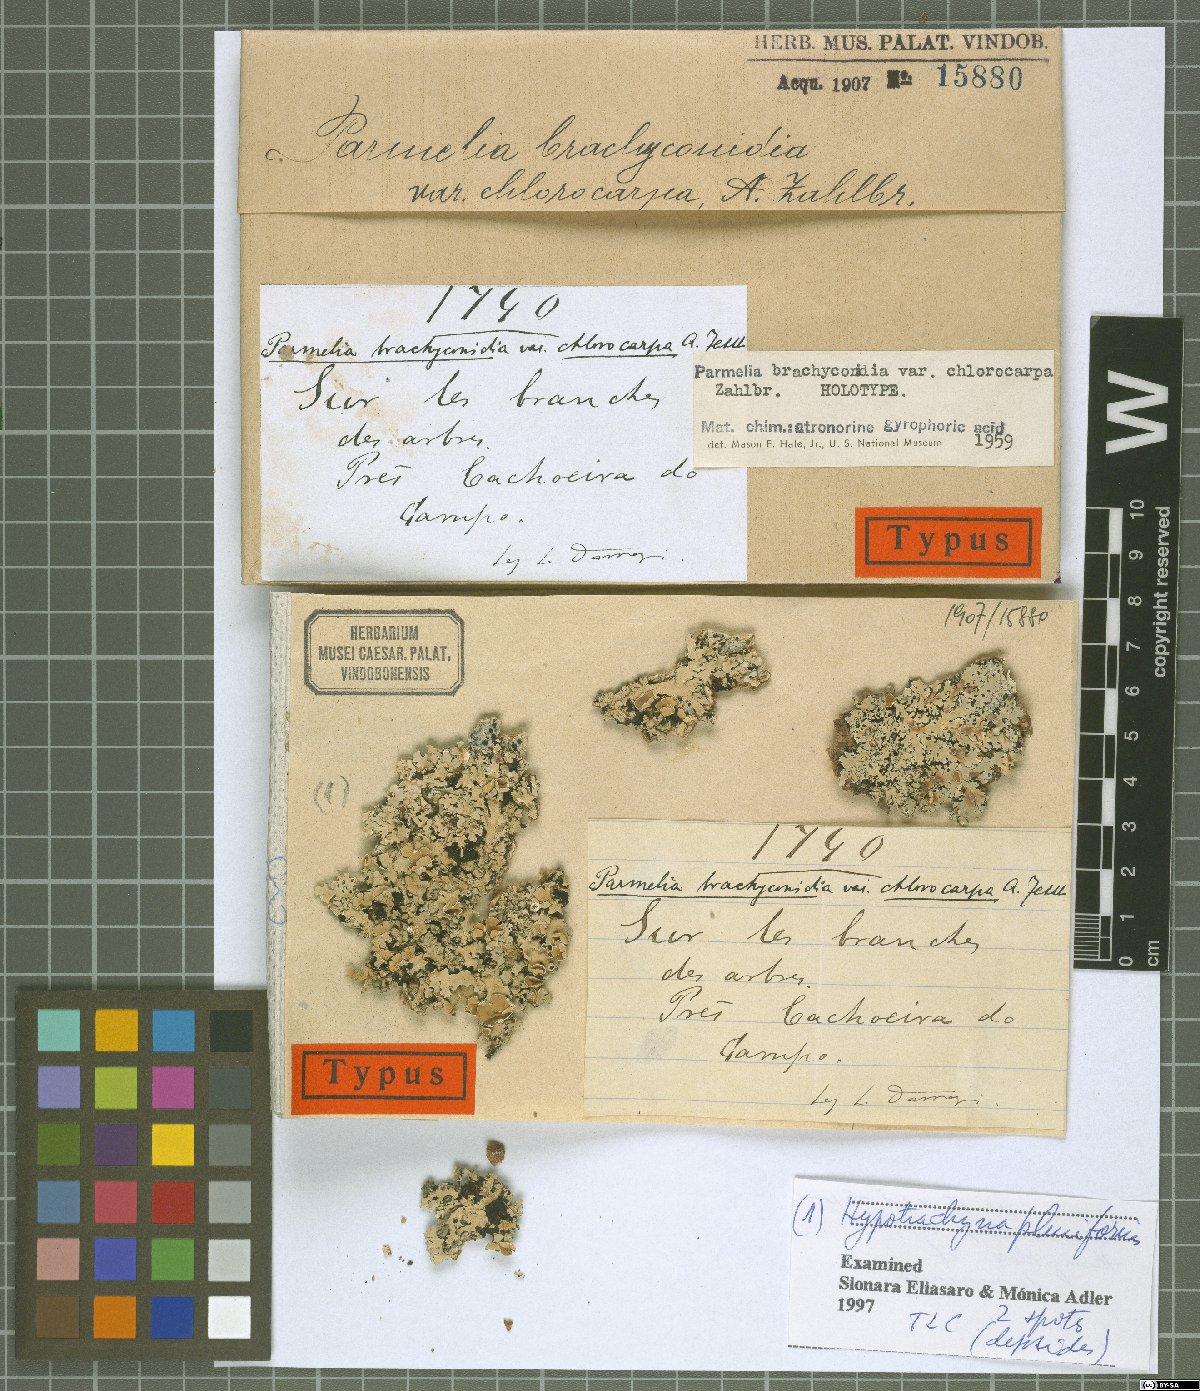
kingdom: Fungi
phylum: Ascomycota
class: Lecanoromycetes
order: Lecanorales
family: Parmeliaceae
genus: Parmelia
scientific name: Parmelia
